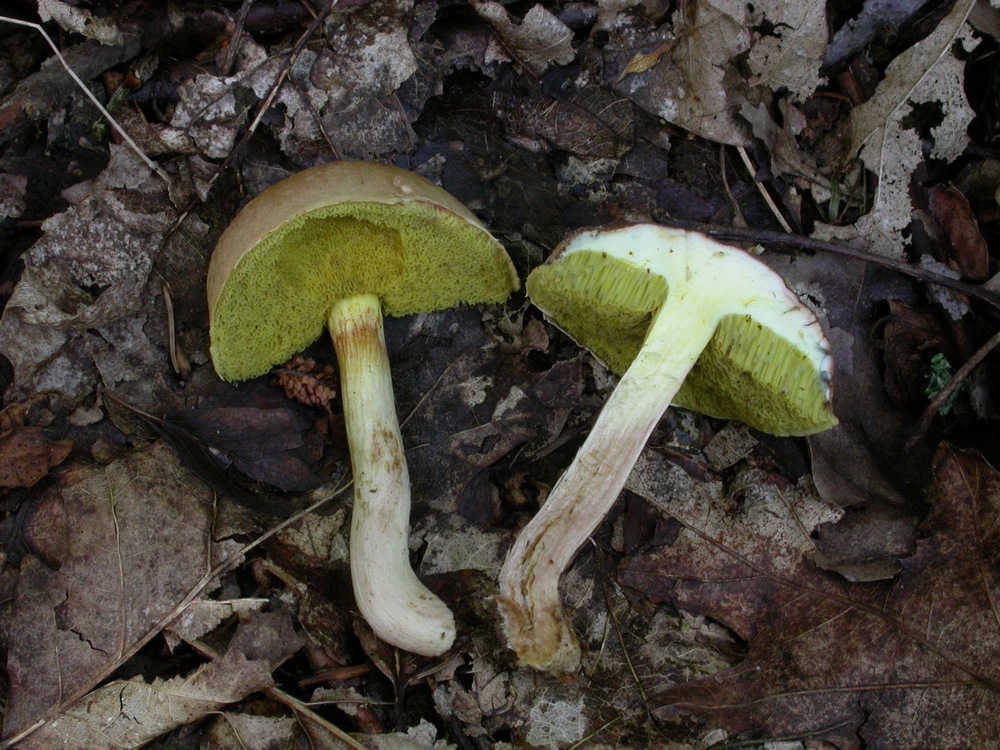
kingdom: Fungi
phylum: Basidiomycota
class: Agaricomycetes
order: Boletales
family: Boletaceae
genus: Xerocomus
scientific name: Xerocomus subtomentosus
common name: filtet rørhat
